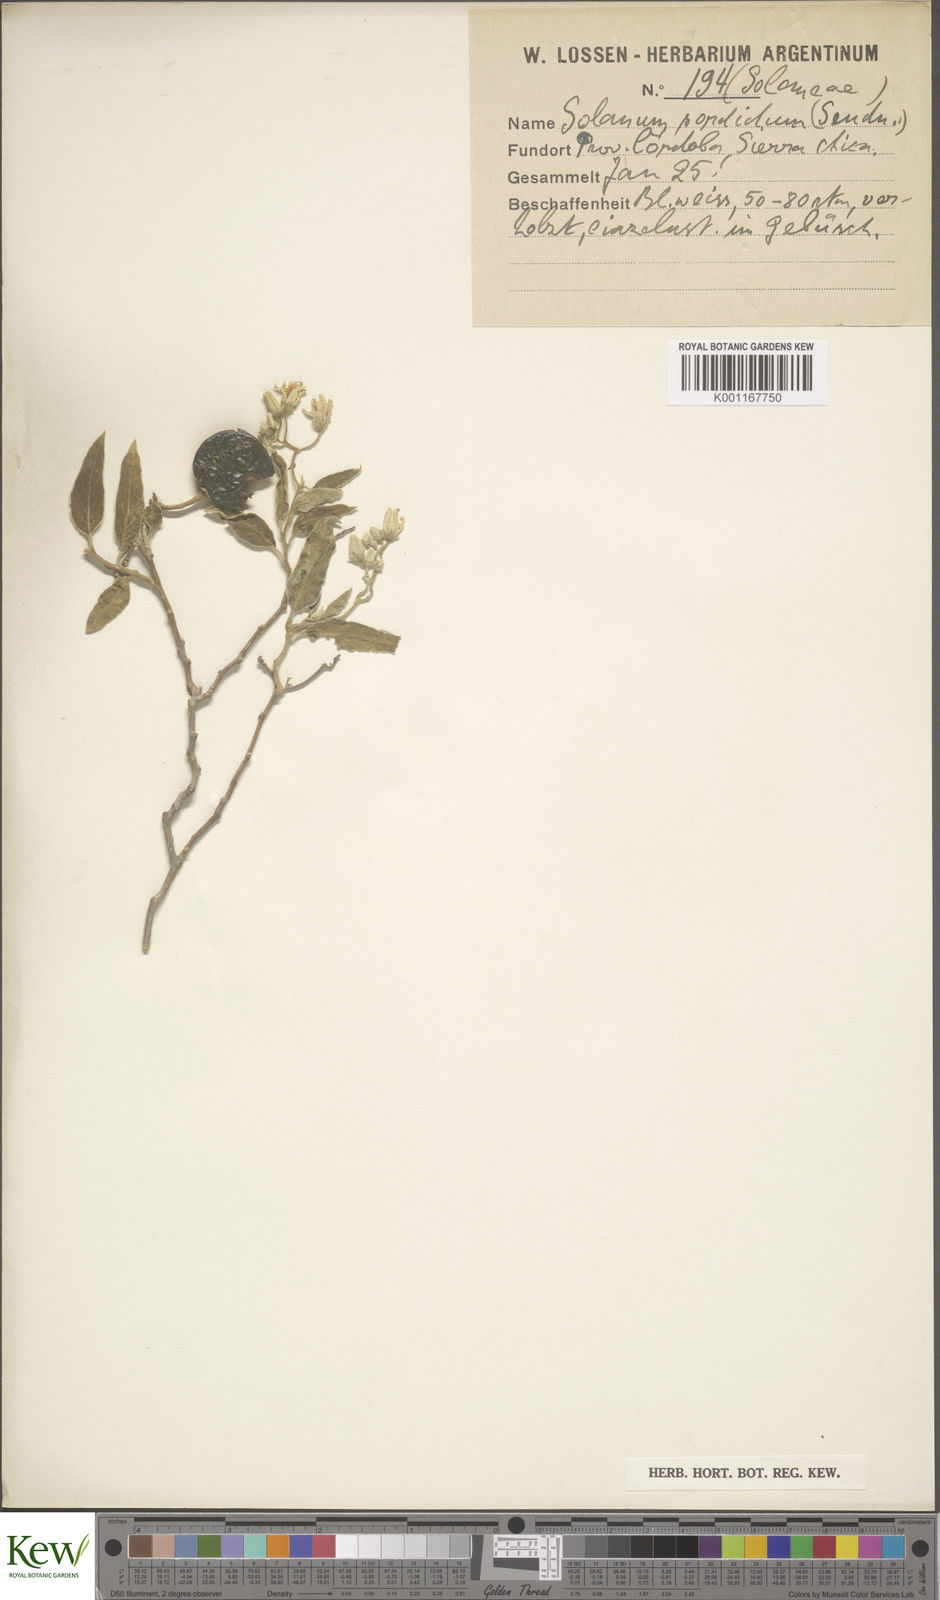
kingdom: Plantae
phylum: Tracheophyta
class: Magnoliopsida
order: Solanales
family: Solanaceae
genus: Solanum
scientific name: Solanum subumbellatum
